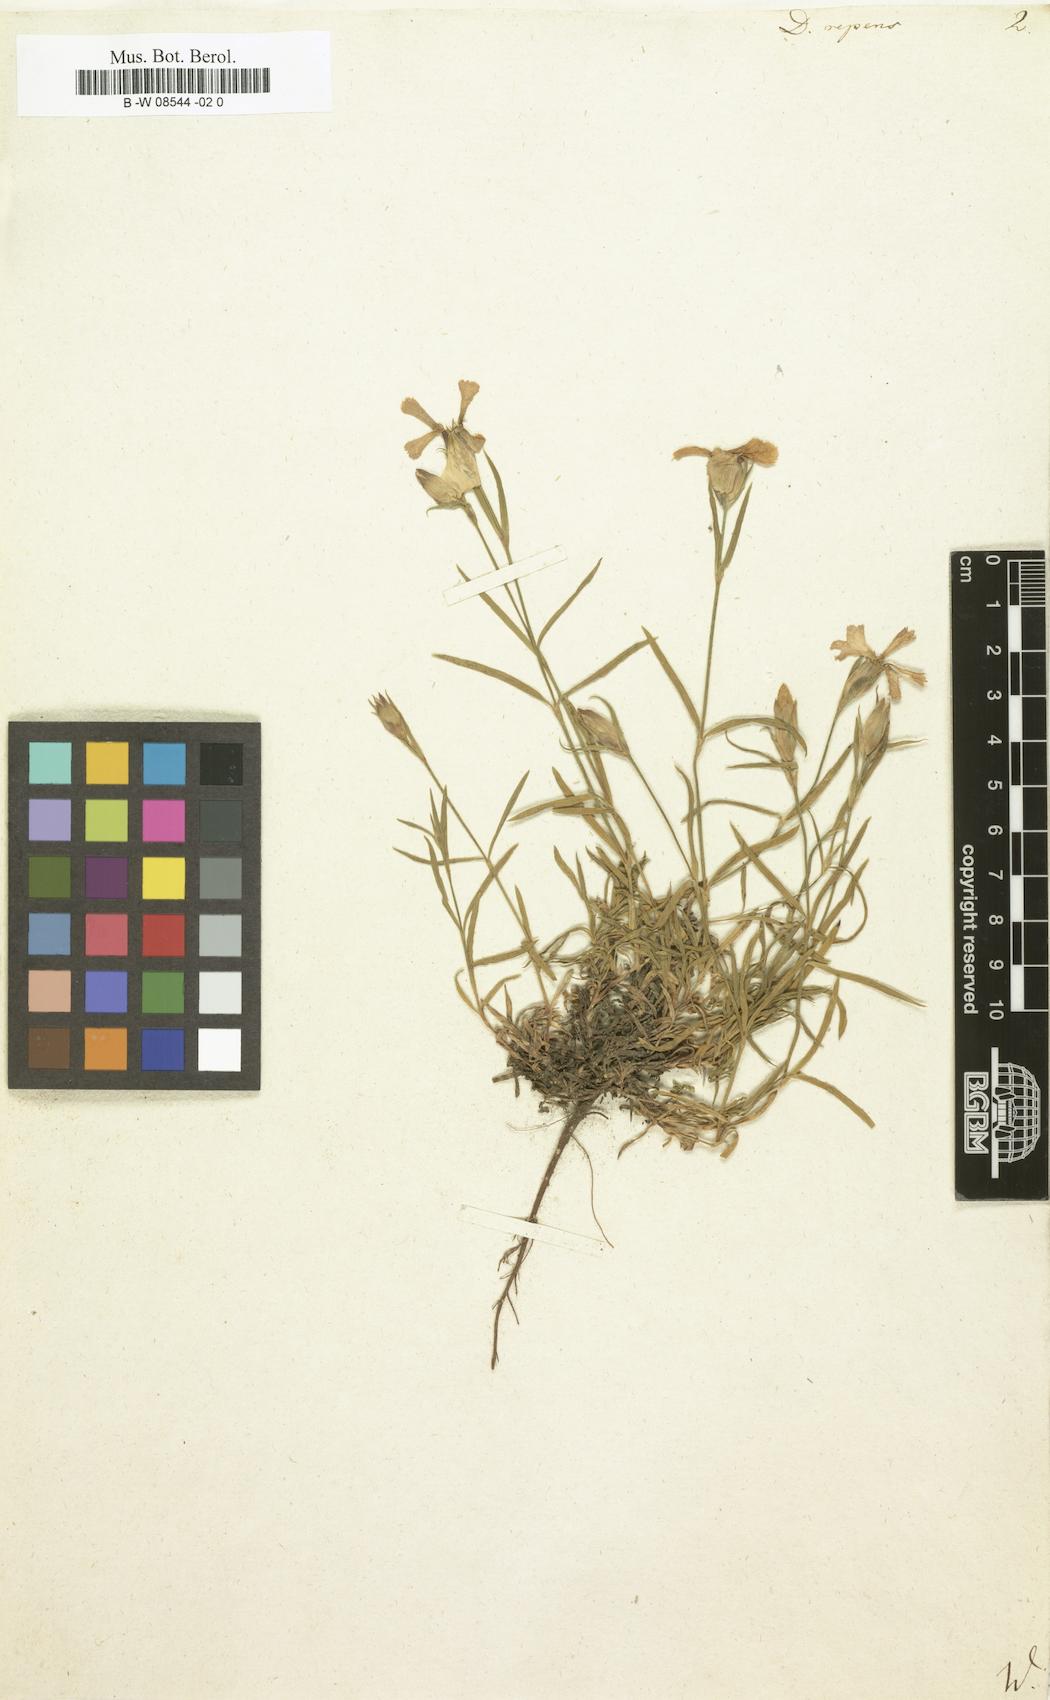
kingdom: Plantae
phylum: Tracheophyta
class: Magnoliopsida
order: Caryophyllales
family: Caryophyllaceae
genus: Dianthus
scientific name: Dianthus repens
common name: Northern pink
